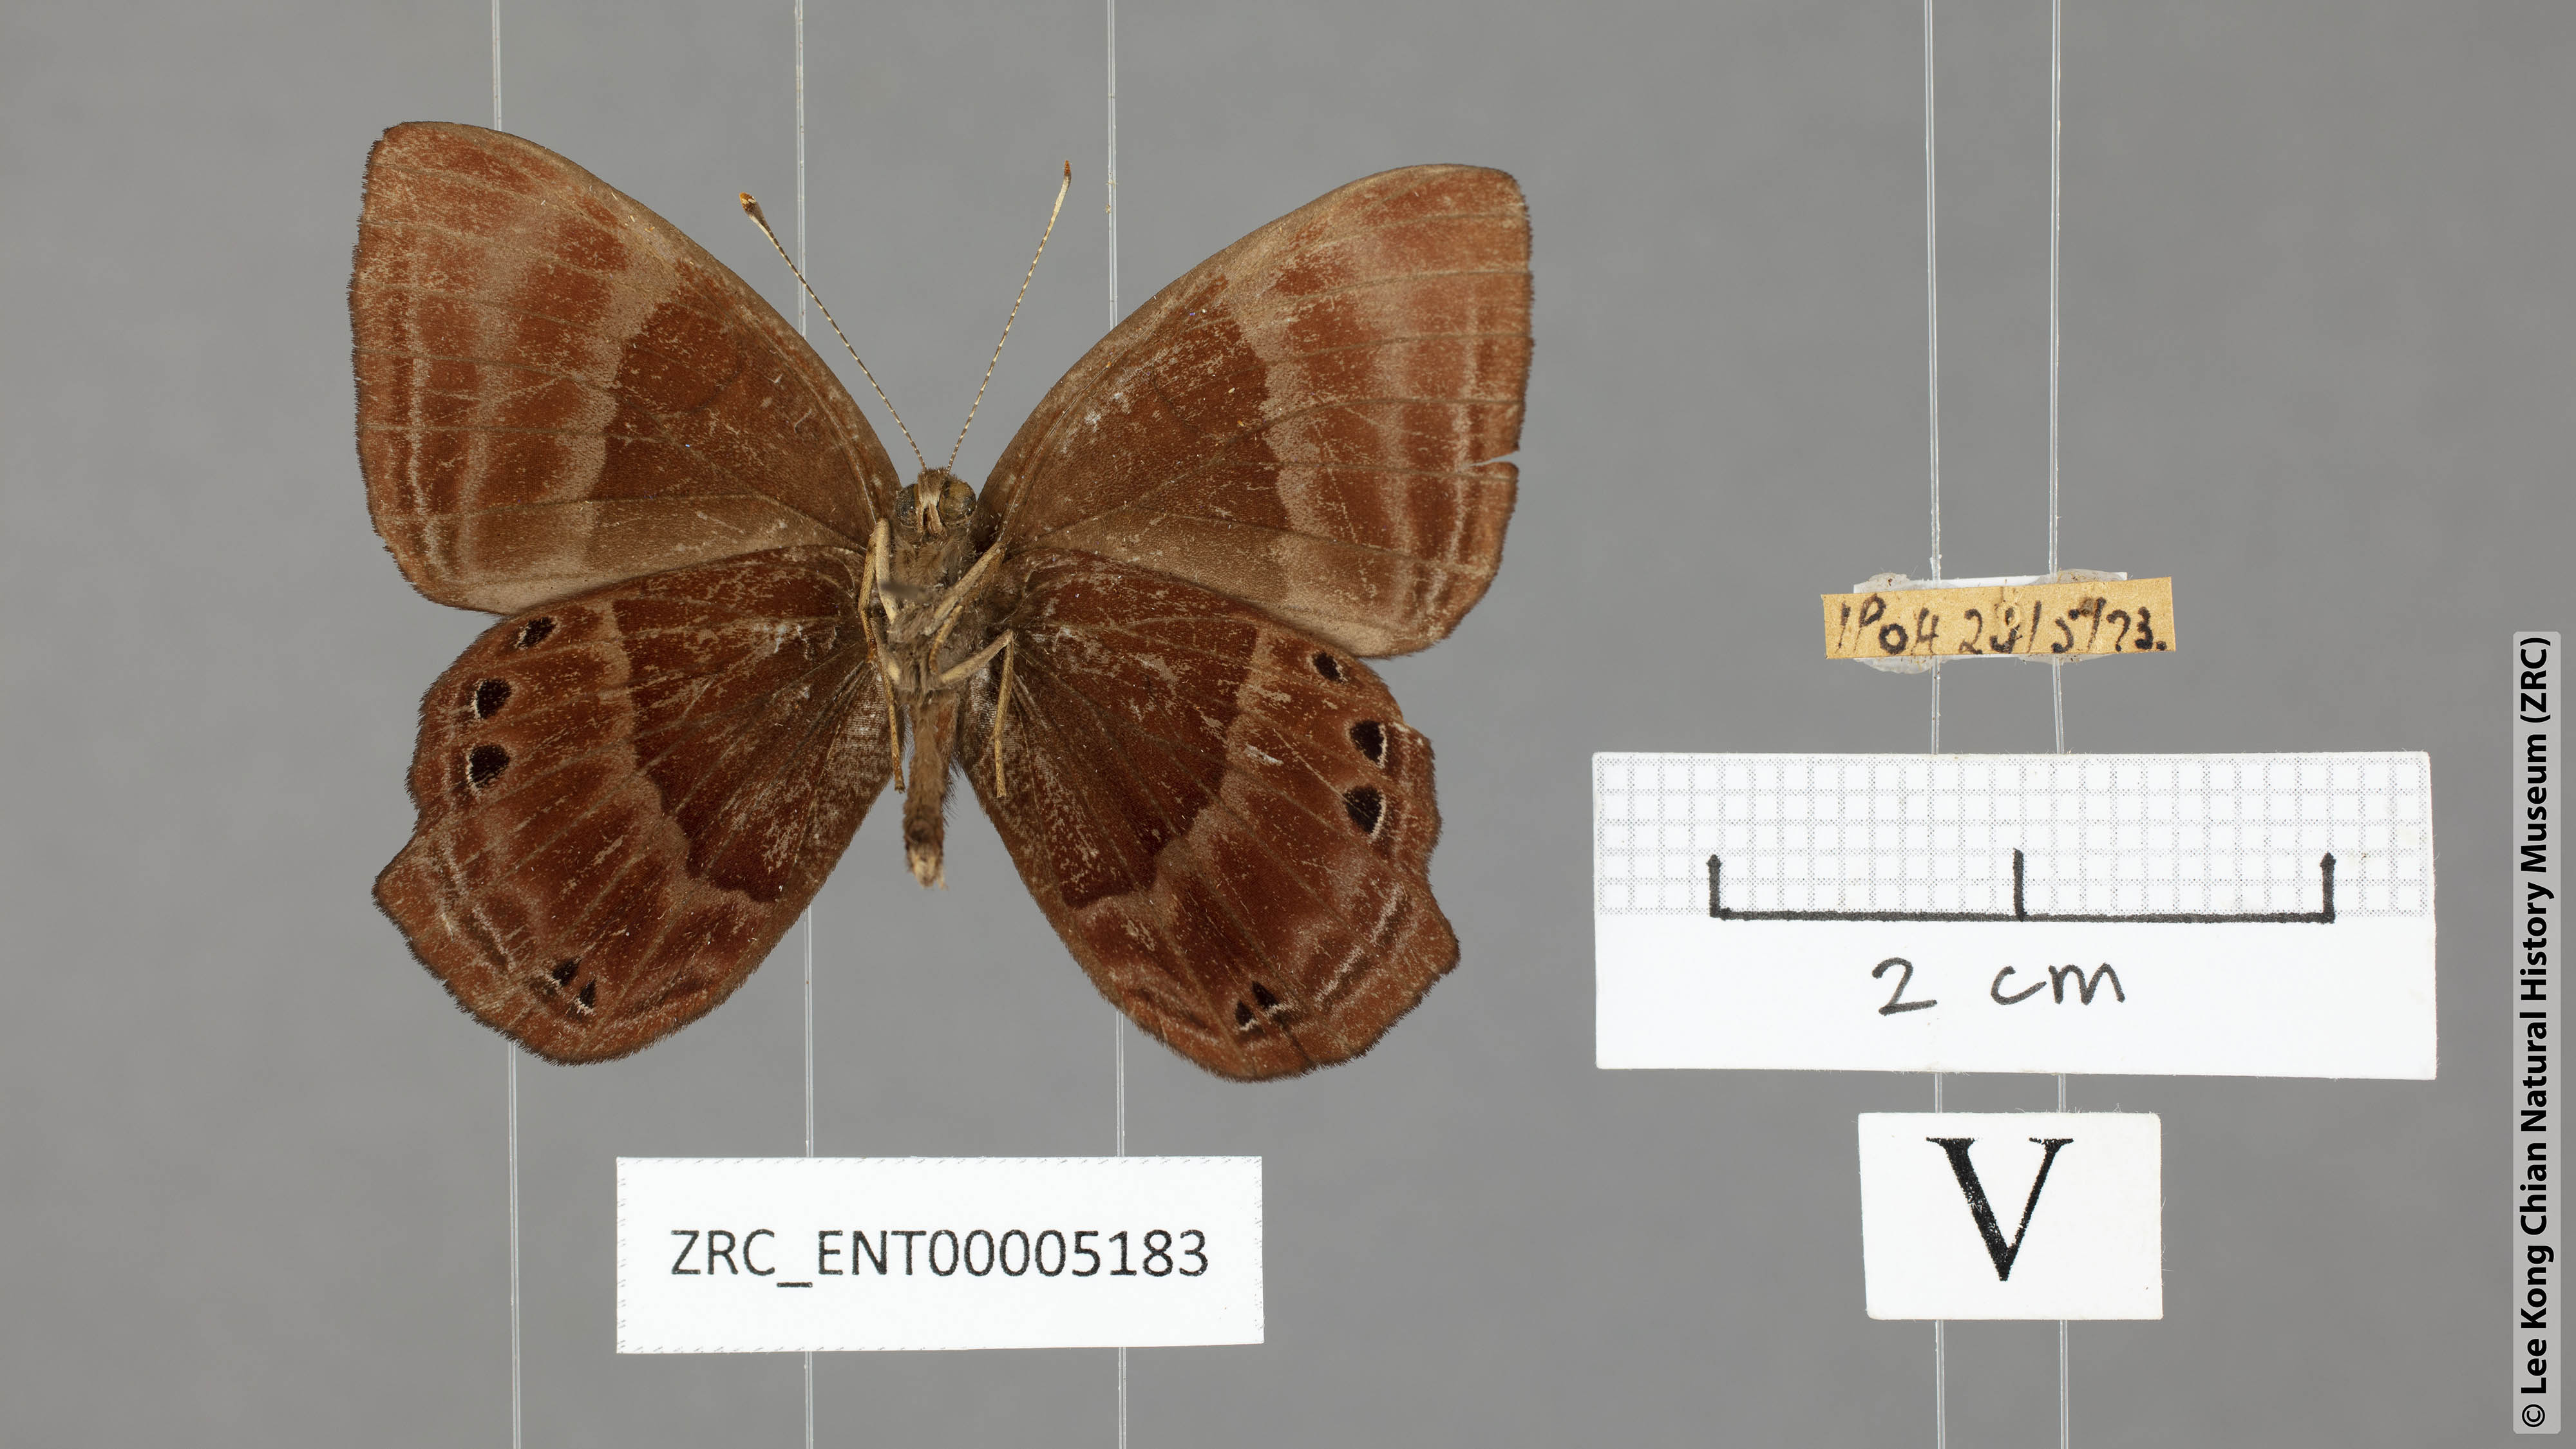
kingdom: Animalia
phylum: Arthropoda
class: Insecta
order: Lepidoptera
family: Lycaenidae
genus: Abisara
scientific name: Abisara saturata
